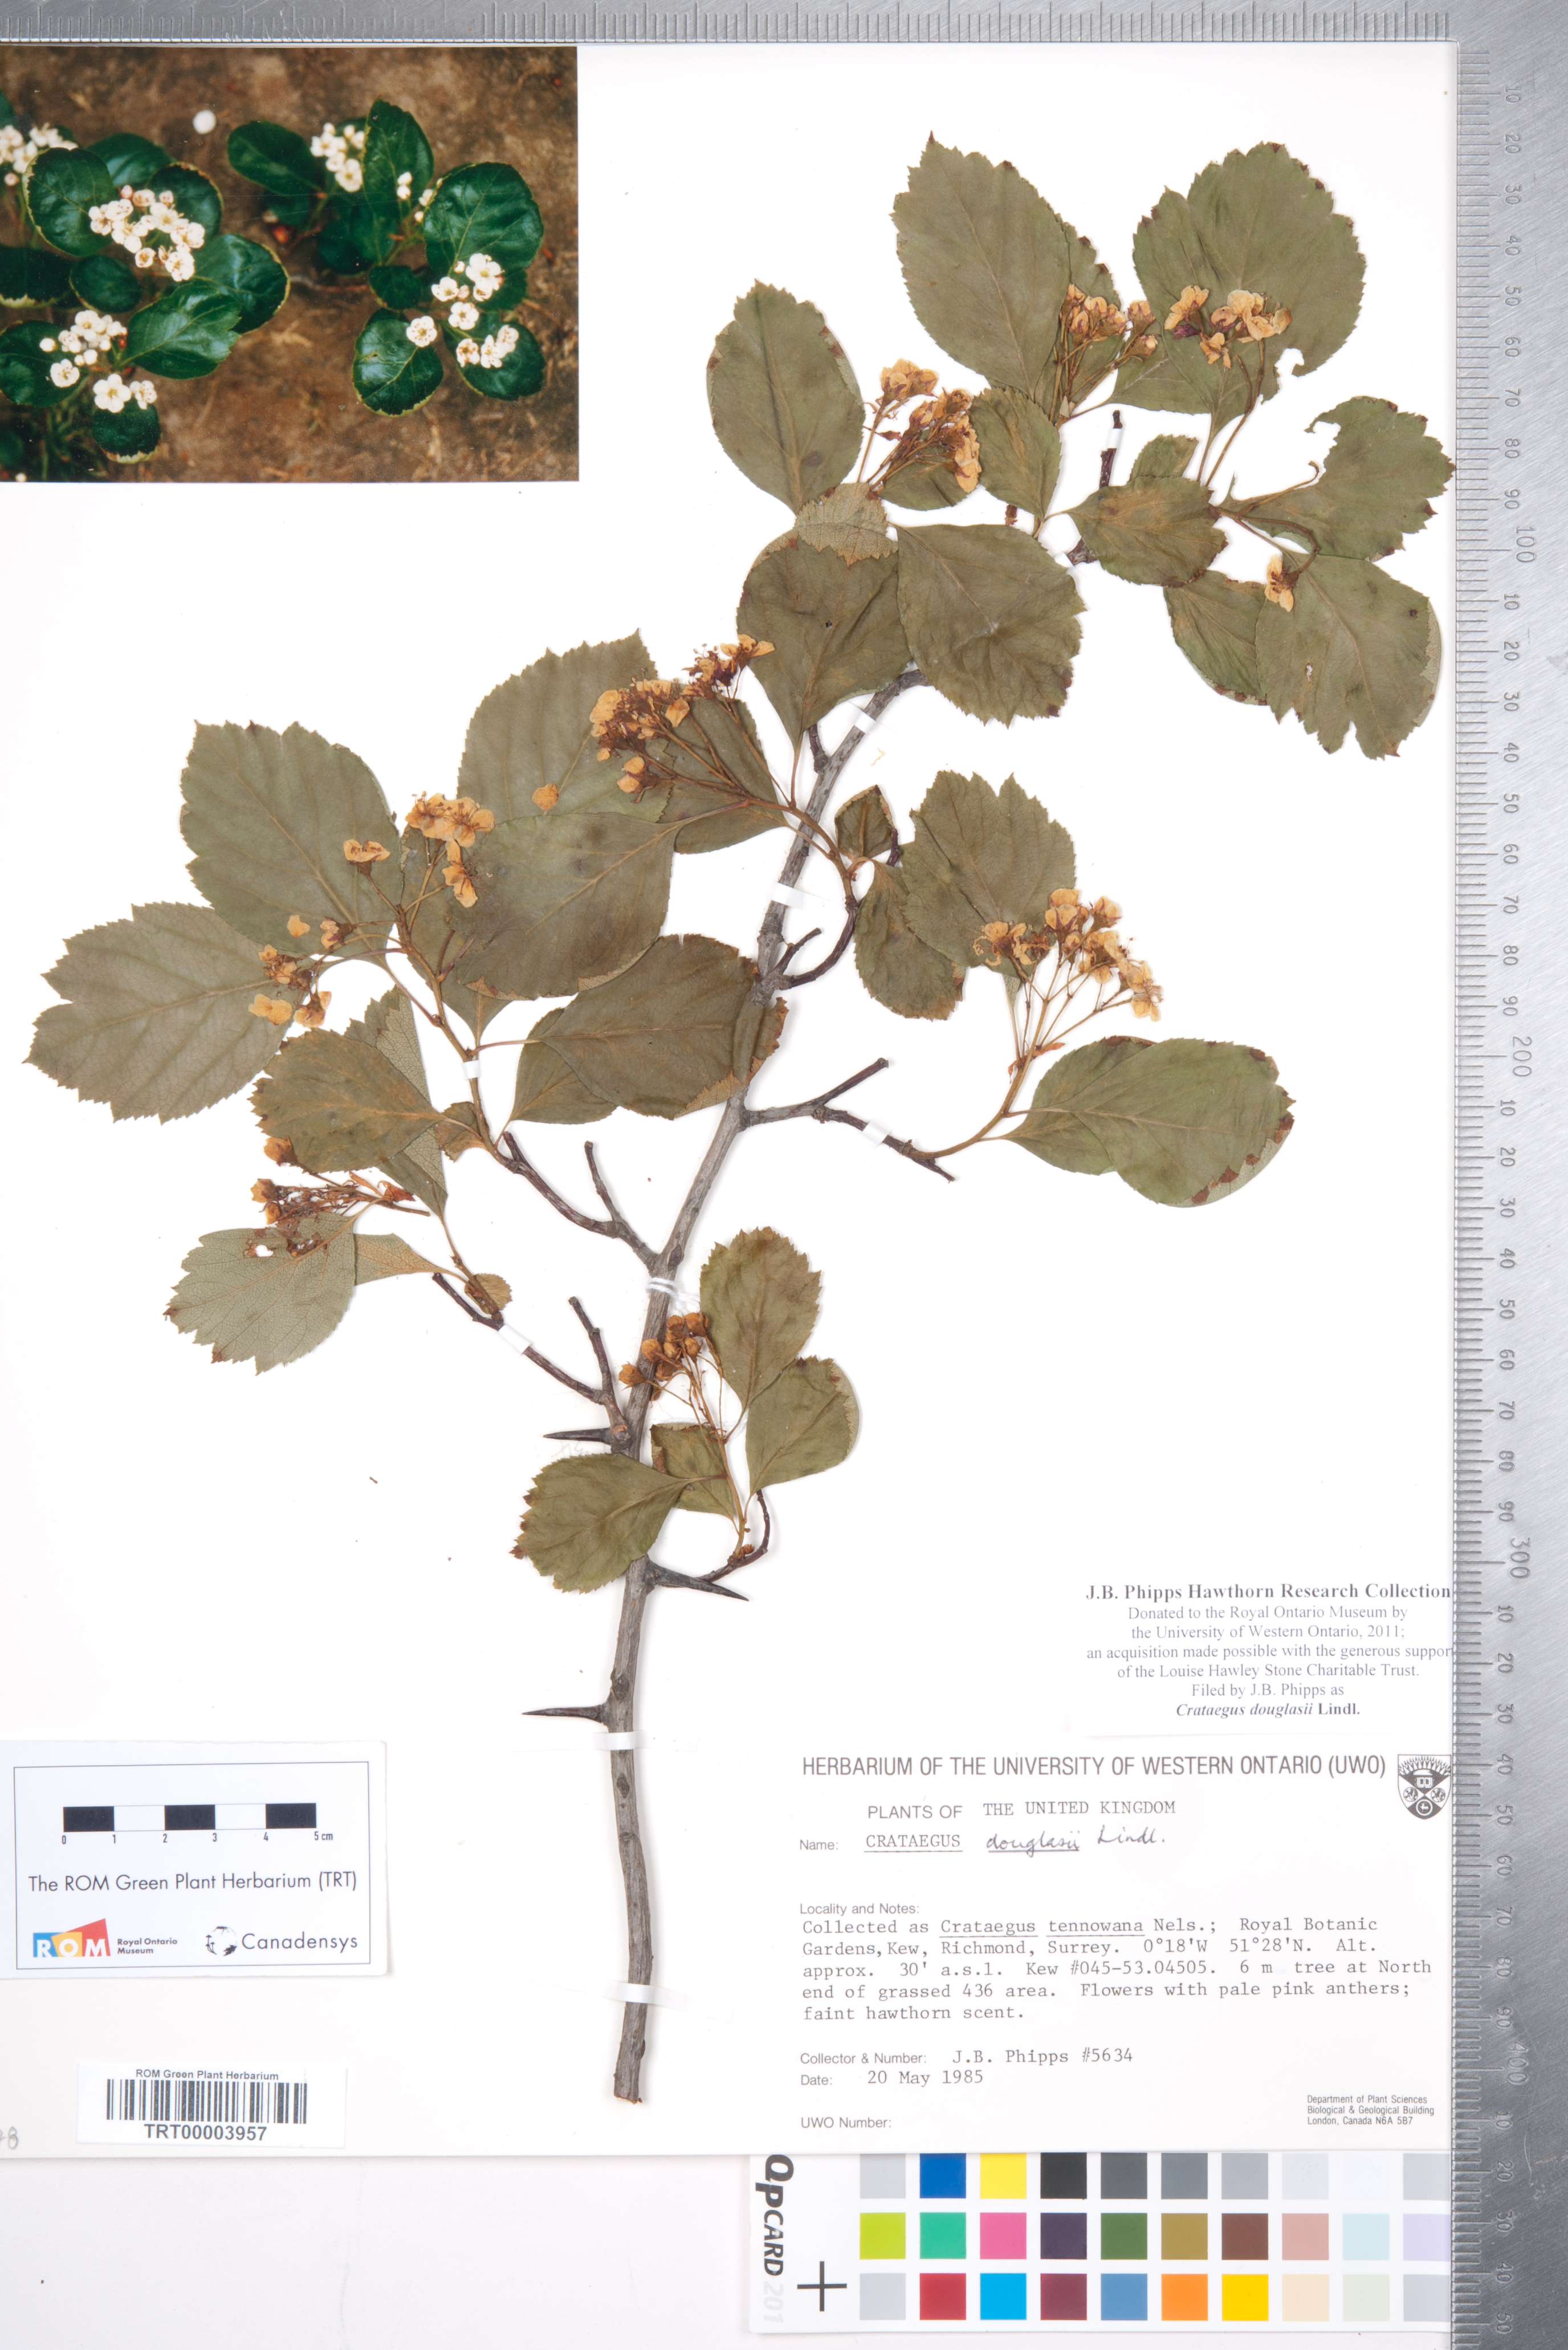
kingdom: Plantae
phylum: Tracheophyta
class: Magnoliopsida
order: Rosales
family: Rosaceae
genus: Crataegus
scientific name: Crataegus douglasii
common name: Black hawthorn
